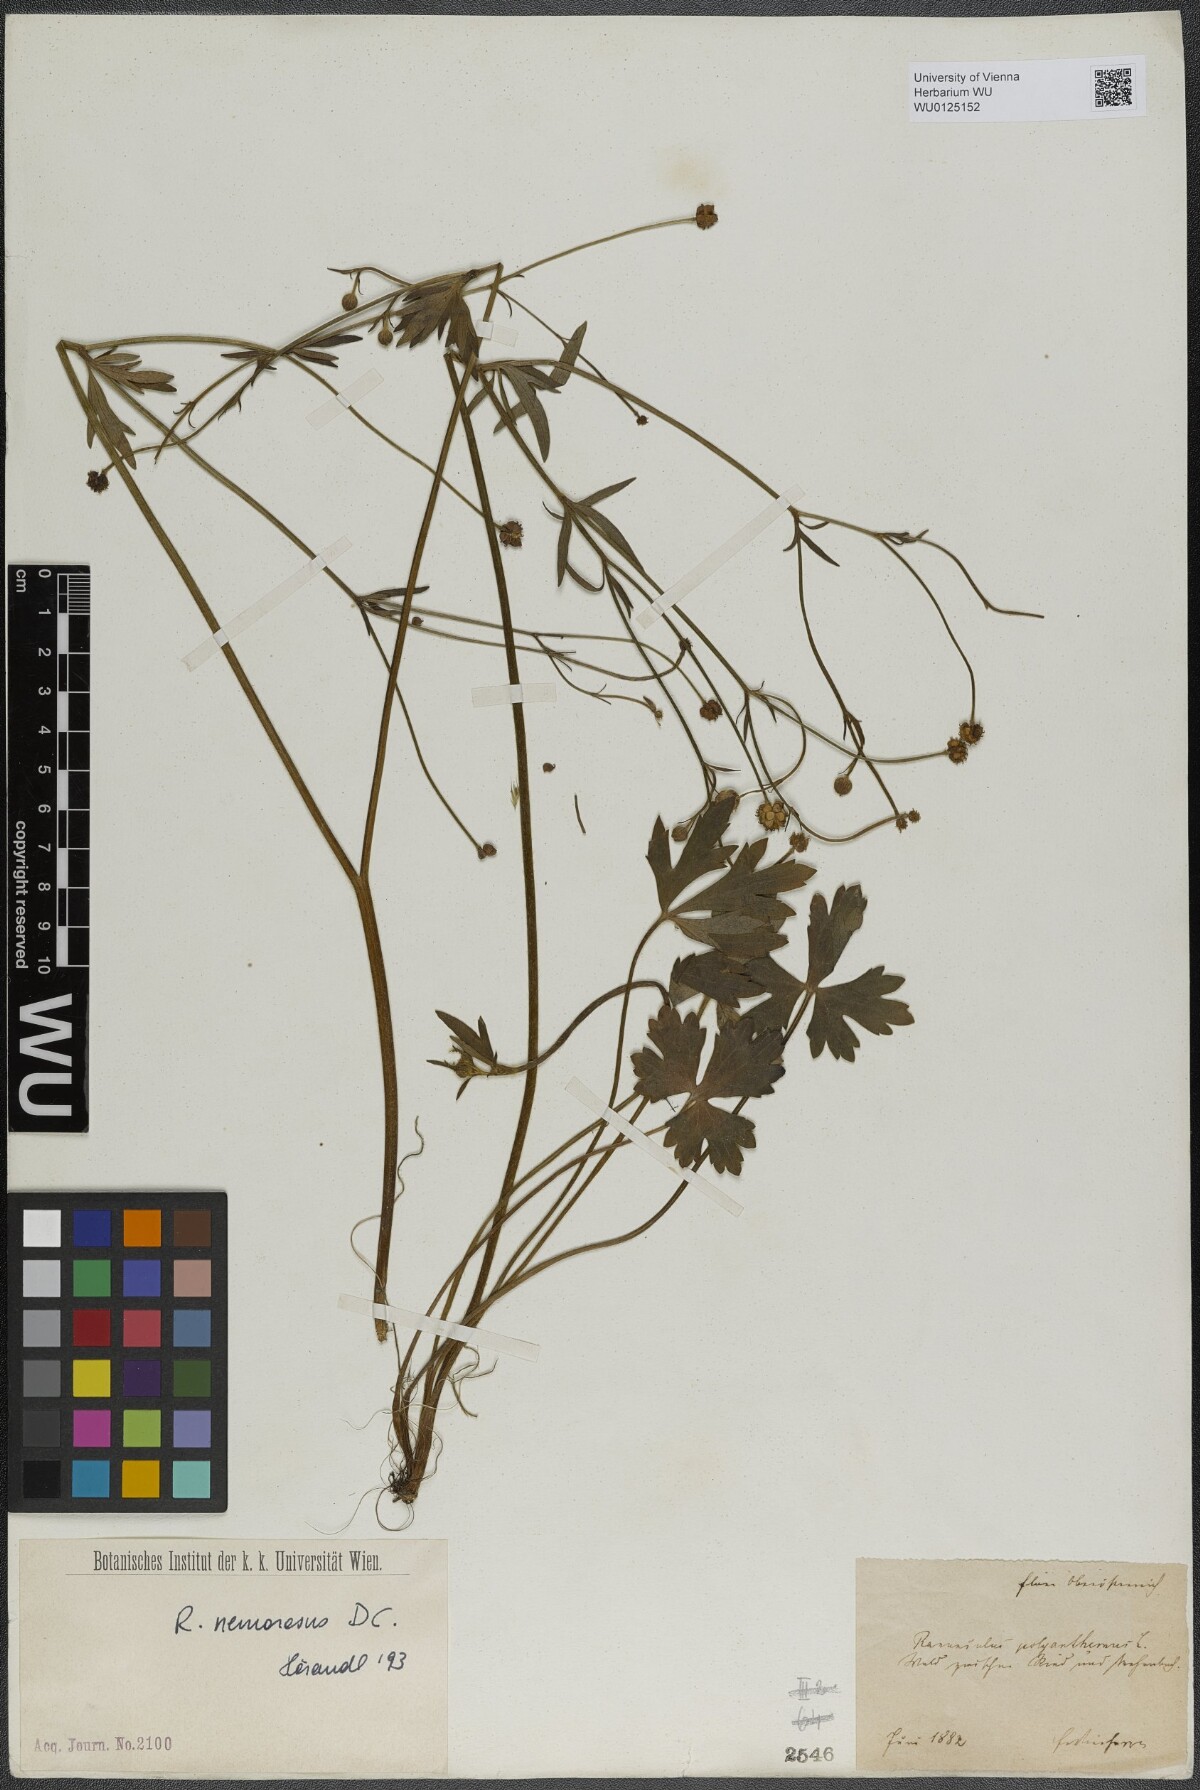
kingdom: Plantae
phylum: Tracheophyta
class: Magnoliopsida
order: Ranunculales
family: Ranunculaceae
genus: Ranunculus
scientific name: Ranunculus polyanthemos
